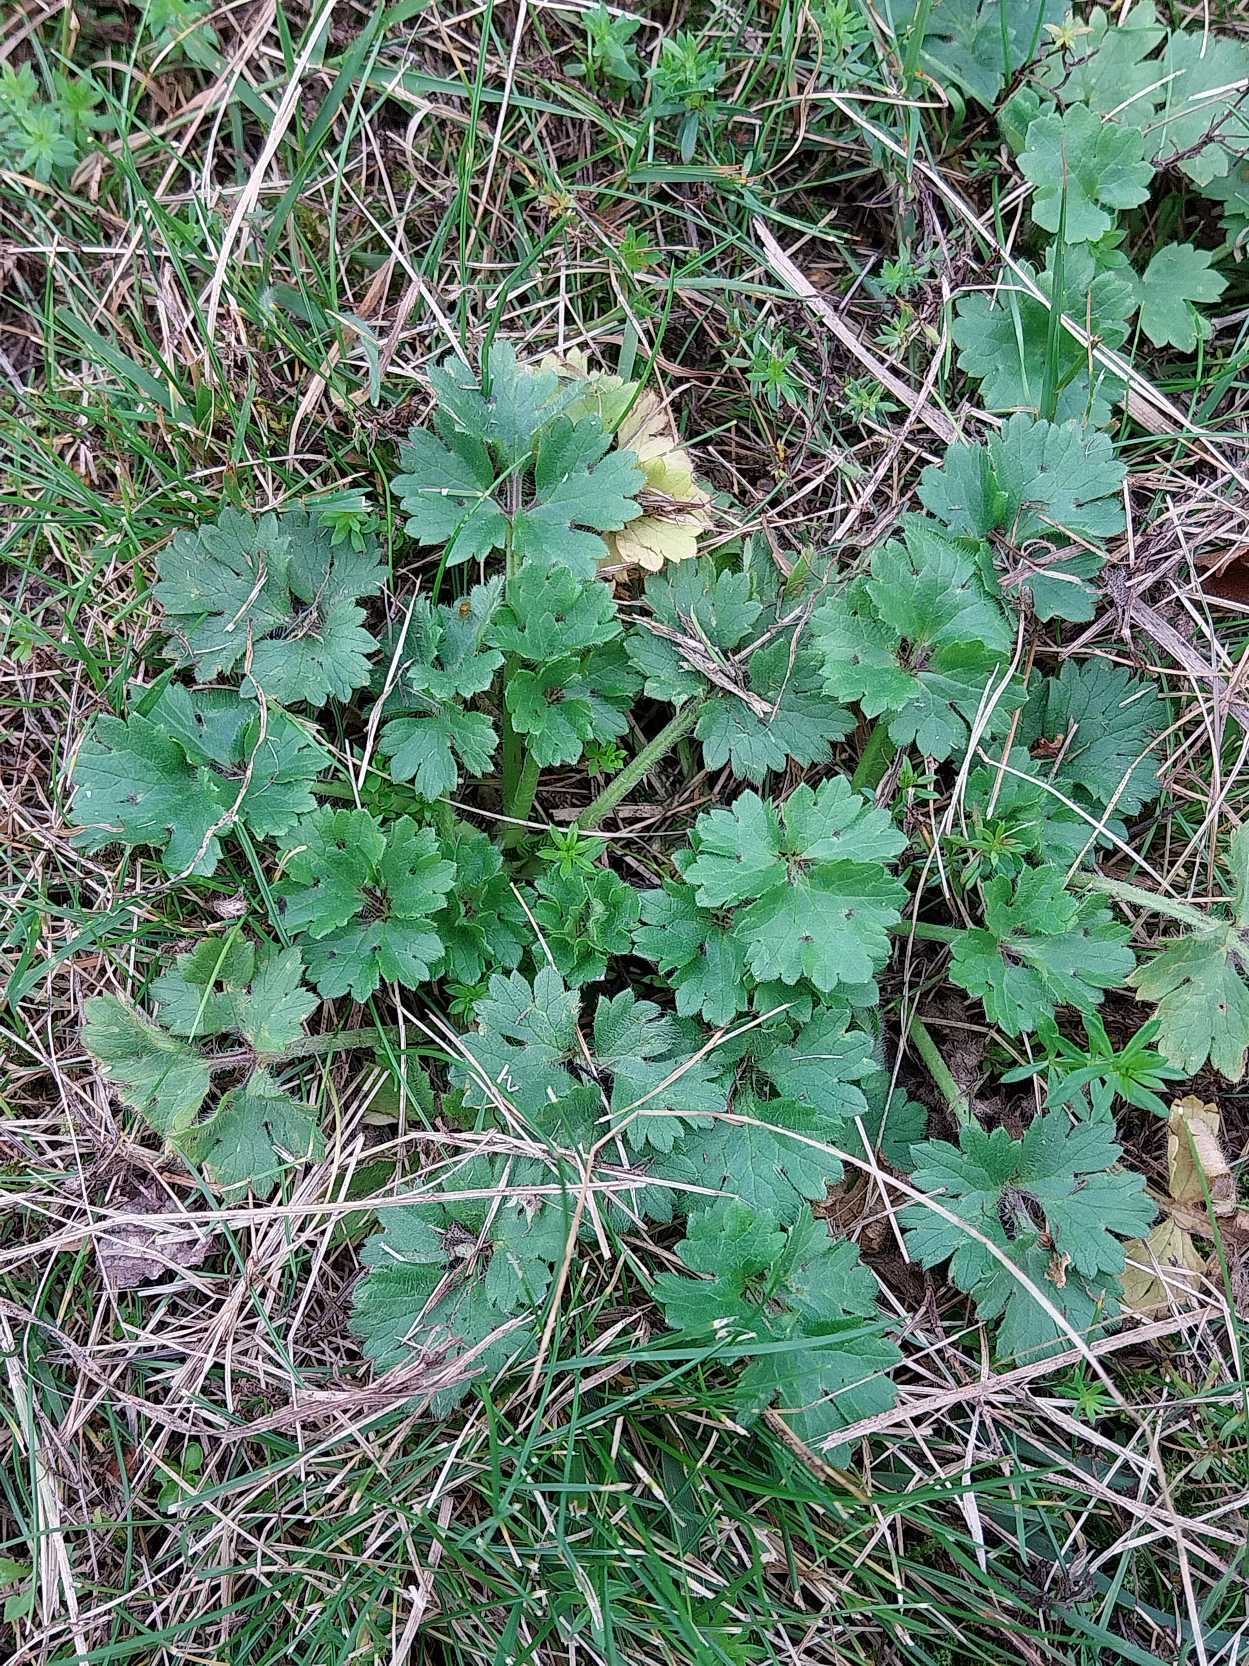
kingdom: Plantae
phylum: Tracheophyta
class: Magnoliopsida
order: Ranunculales
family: Ranunculaceae
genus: Ranunculus
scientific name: Ranunculus bulbosus
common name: Knold-ranunkel
